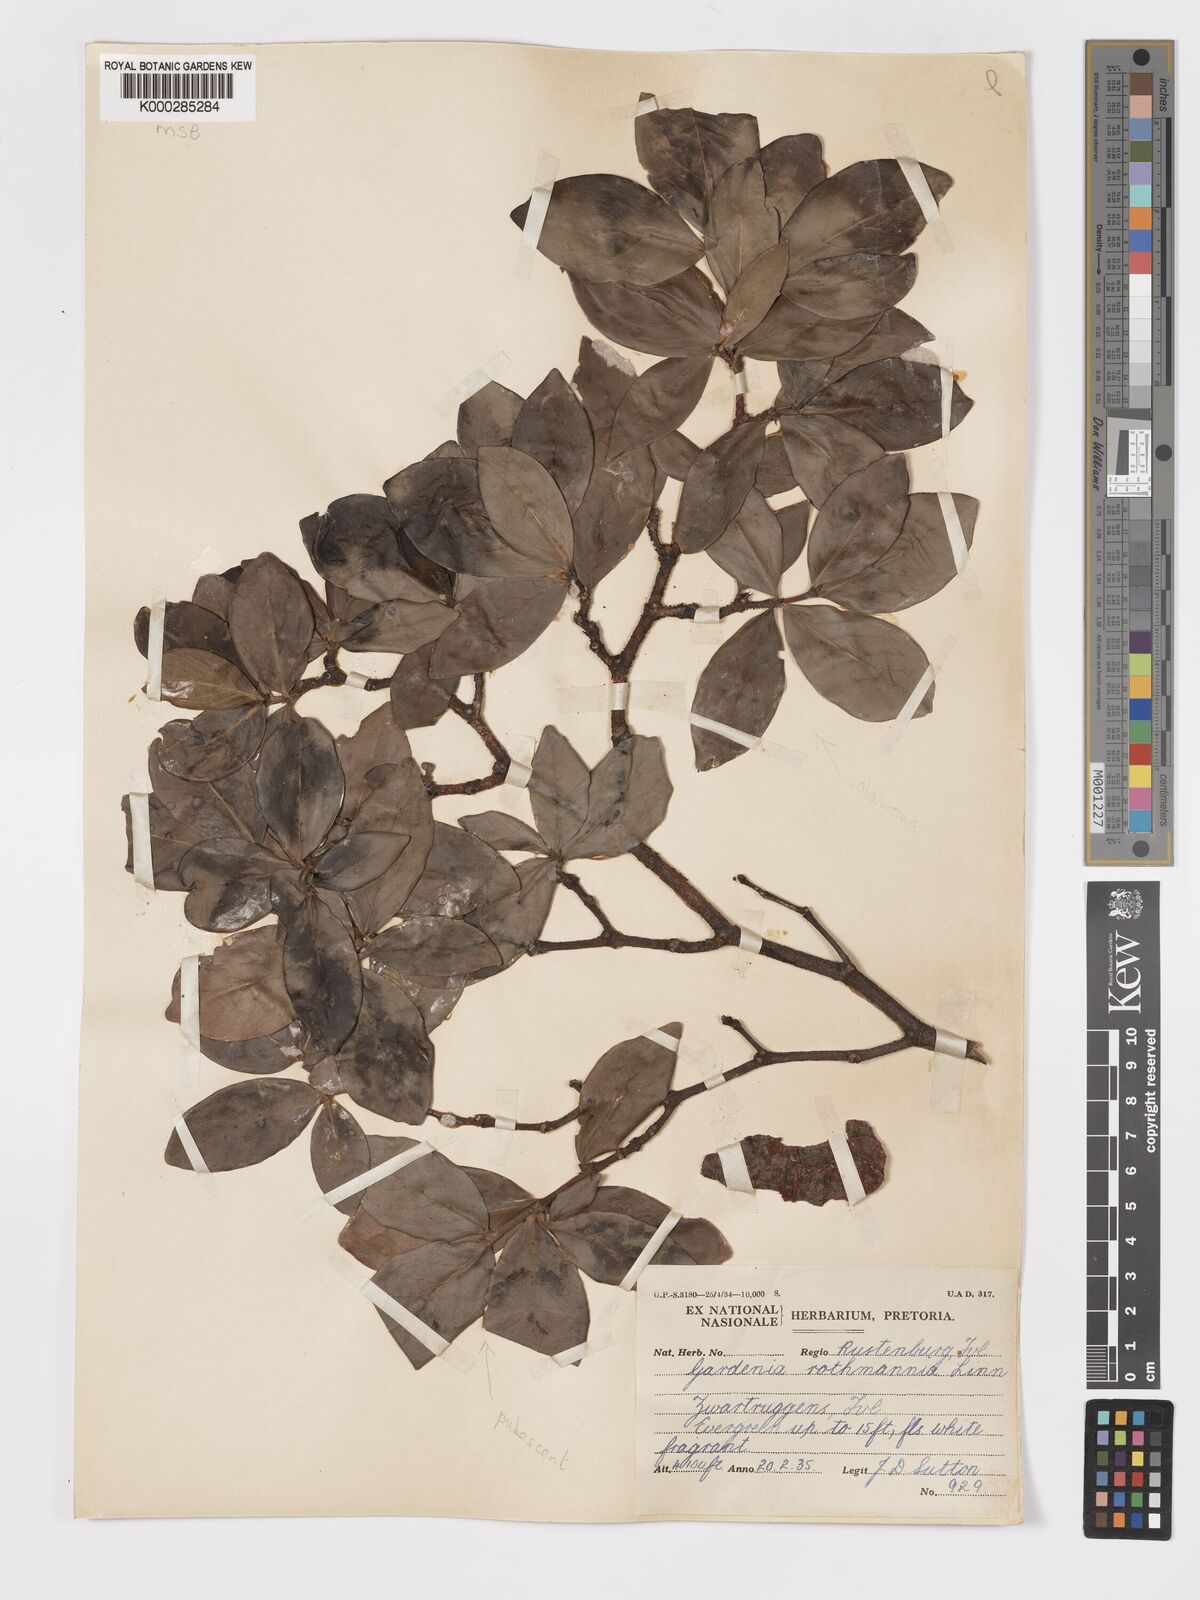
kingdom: Plantae
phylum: Tracheophyta
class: Magnoliopsida
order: Gentianales
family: Rubiaceae
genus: Rothmannia
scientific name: Rothmannia capensis
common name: Cape gardenia
